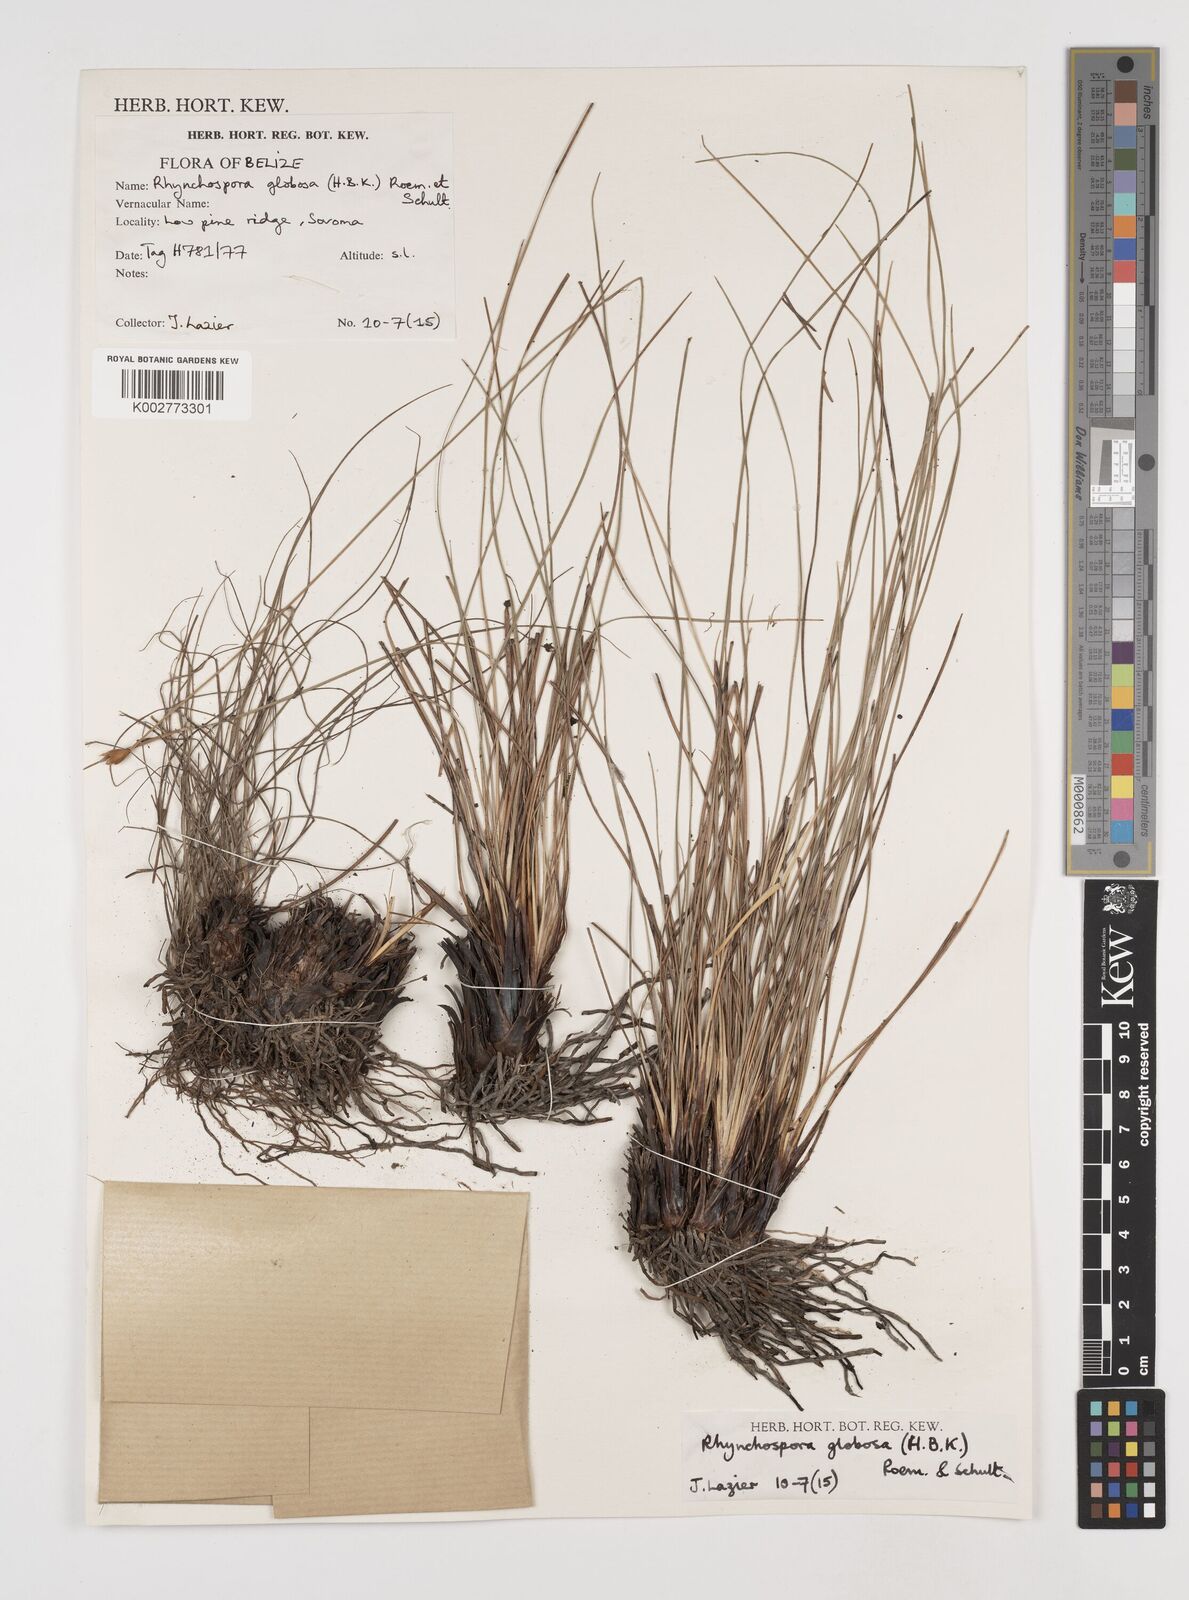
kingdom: Plantae
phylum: Tracheophyta
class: Liliopsida
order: Poales
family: Cyperaceae
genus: Rhynchospora
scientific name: Rhynchospora globosa
